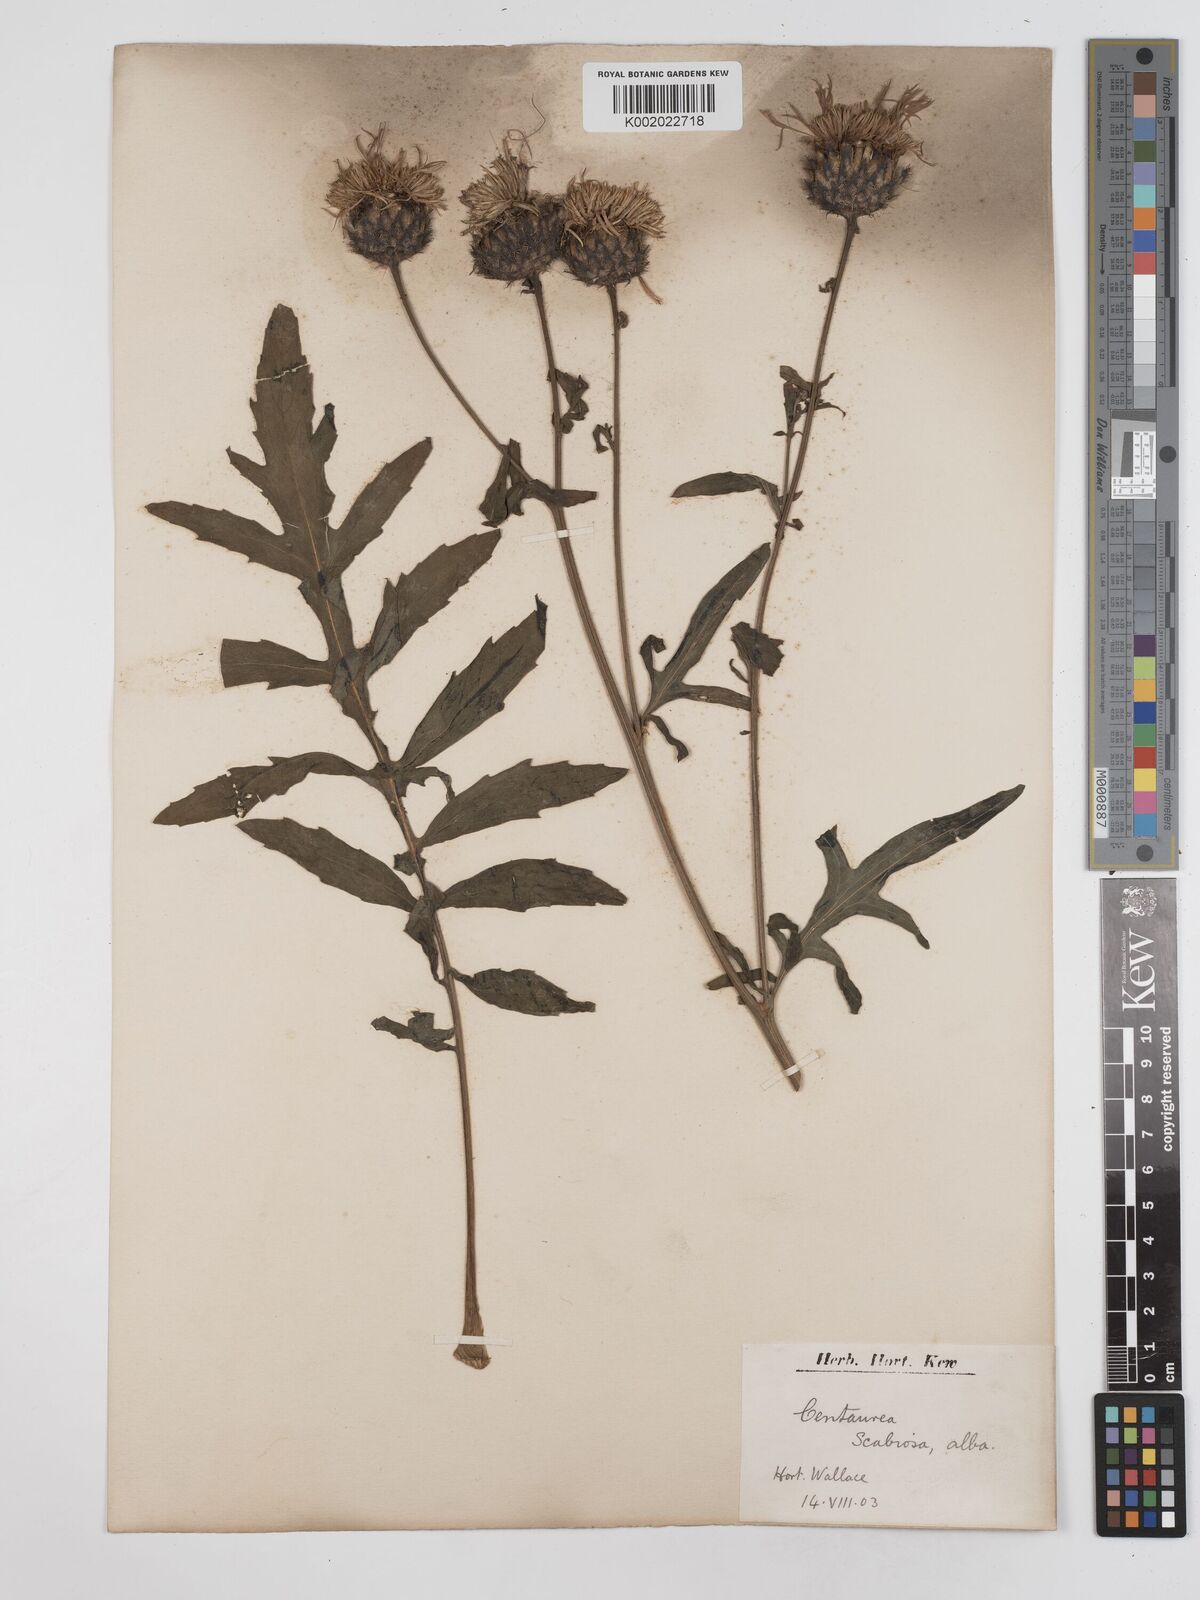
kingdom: Plantae
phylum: Tracheophyta
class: Magnoliopsida
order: Asterales
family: Asteraceae
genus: Centaurea
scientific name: Centaurea scabiosa
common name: Greater knapweed
